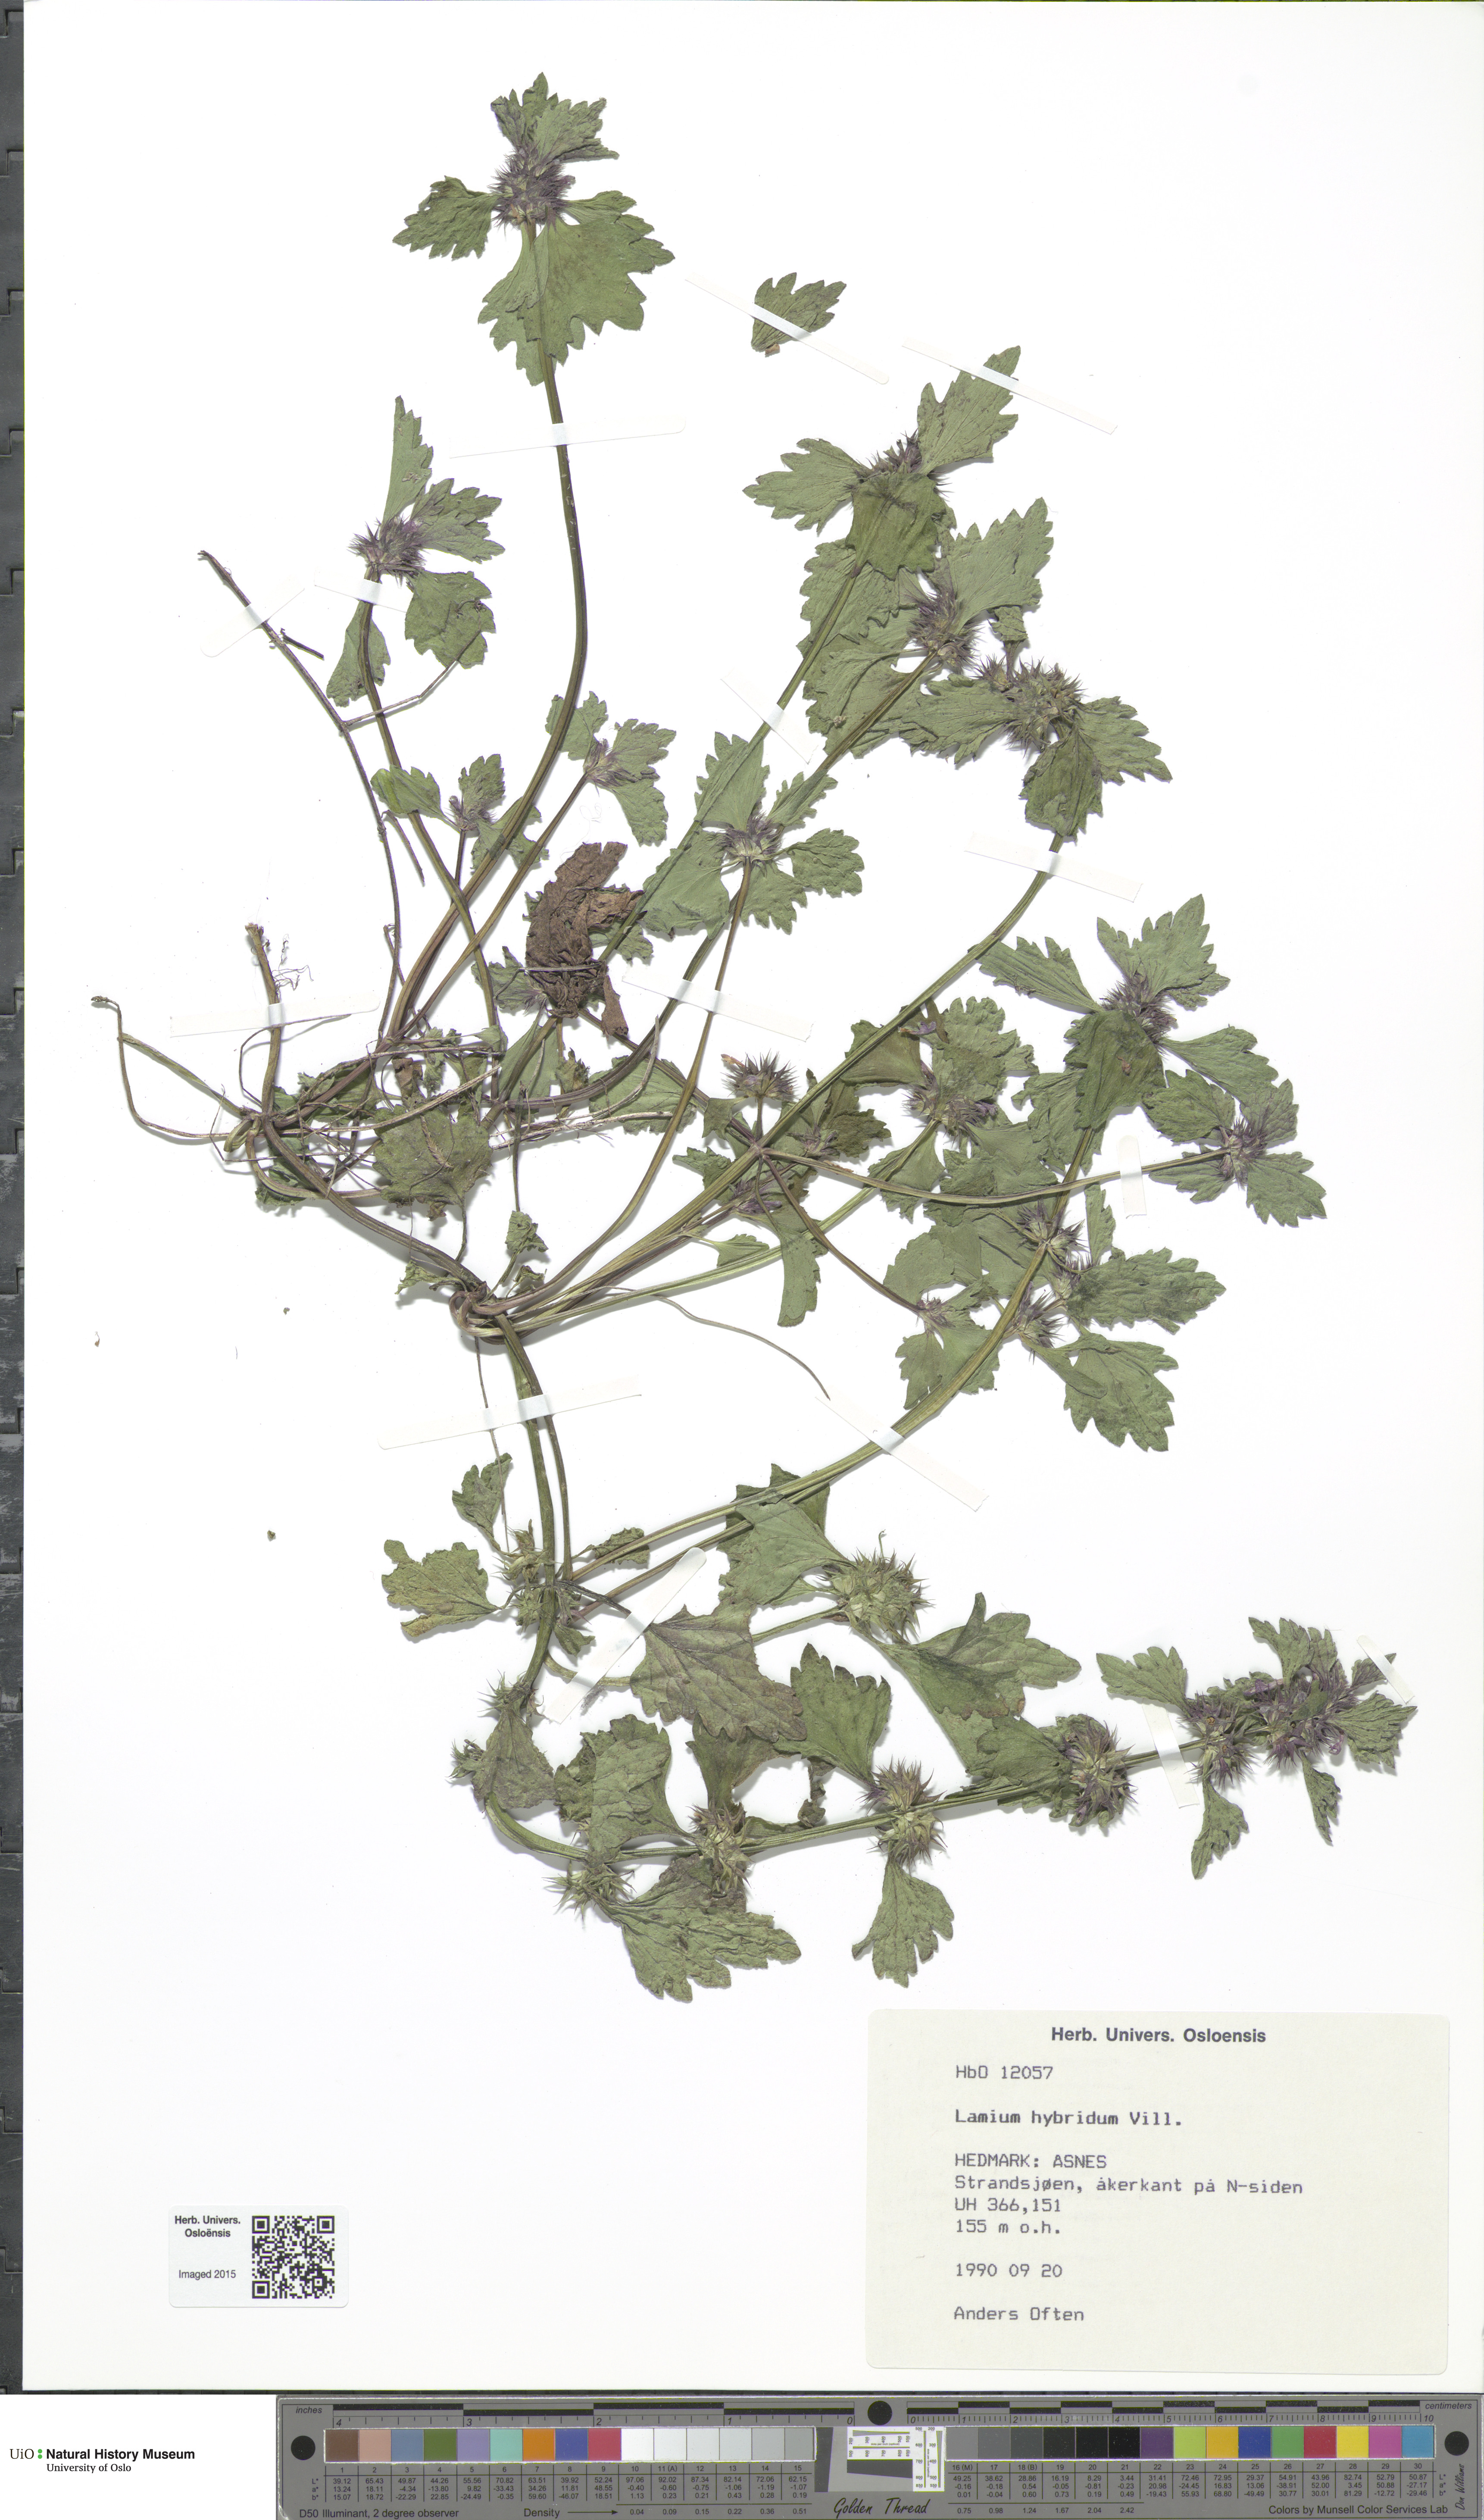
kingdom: Plantae
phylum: Tracheophyta
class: Magnoliopsida
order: Lamiales
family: Lamiaceae
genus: Lamium
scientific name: Lamium hybridum
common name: Cut-leaved dead-nettle
